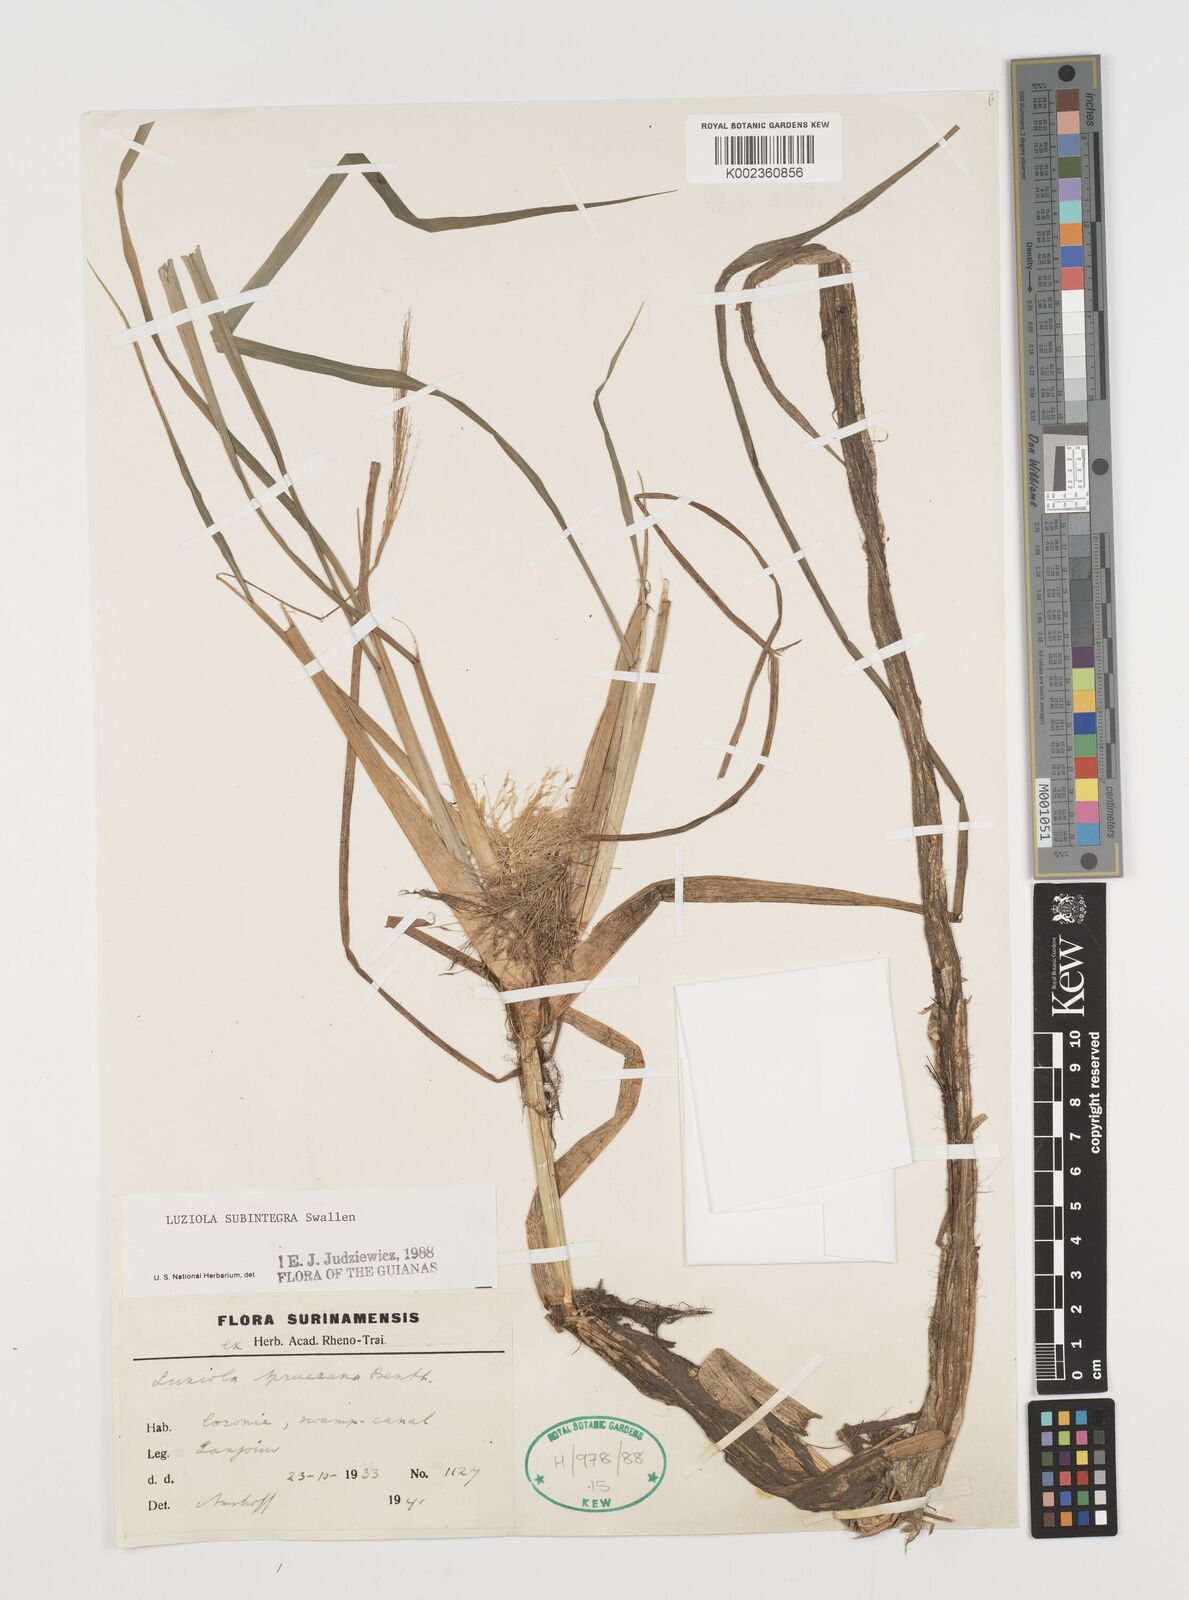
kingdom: Plantae
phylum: Tracheophyta
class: Liliopsida
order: Poales
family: Poaceae
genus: Luziola
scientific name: Luziola subintegra
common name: Large watergrass
